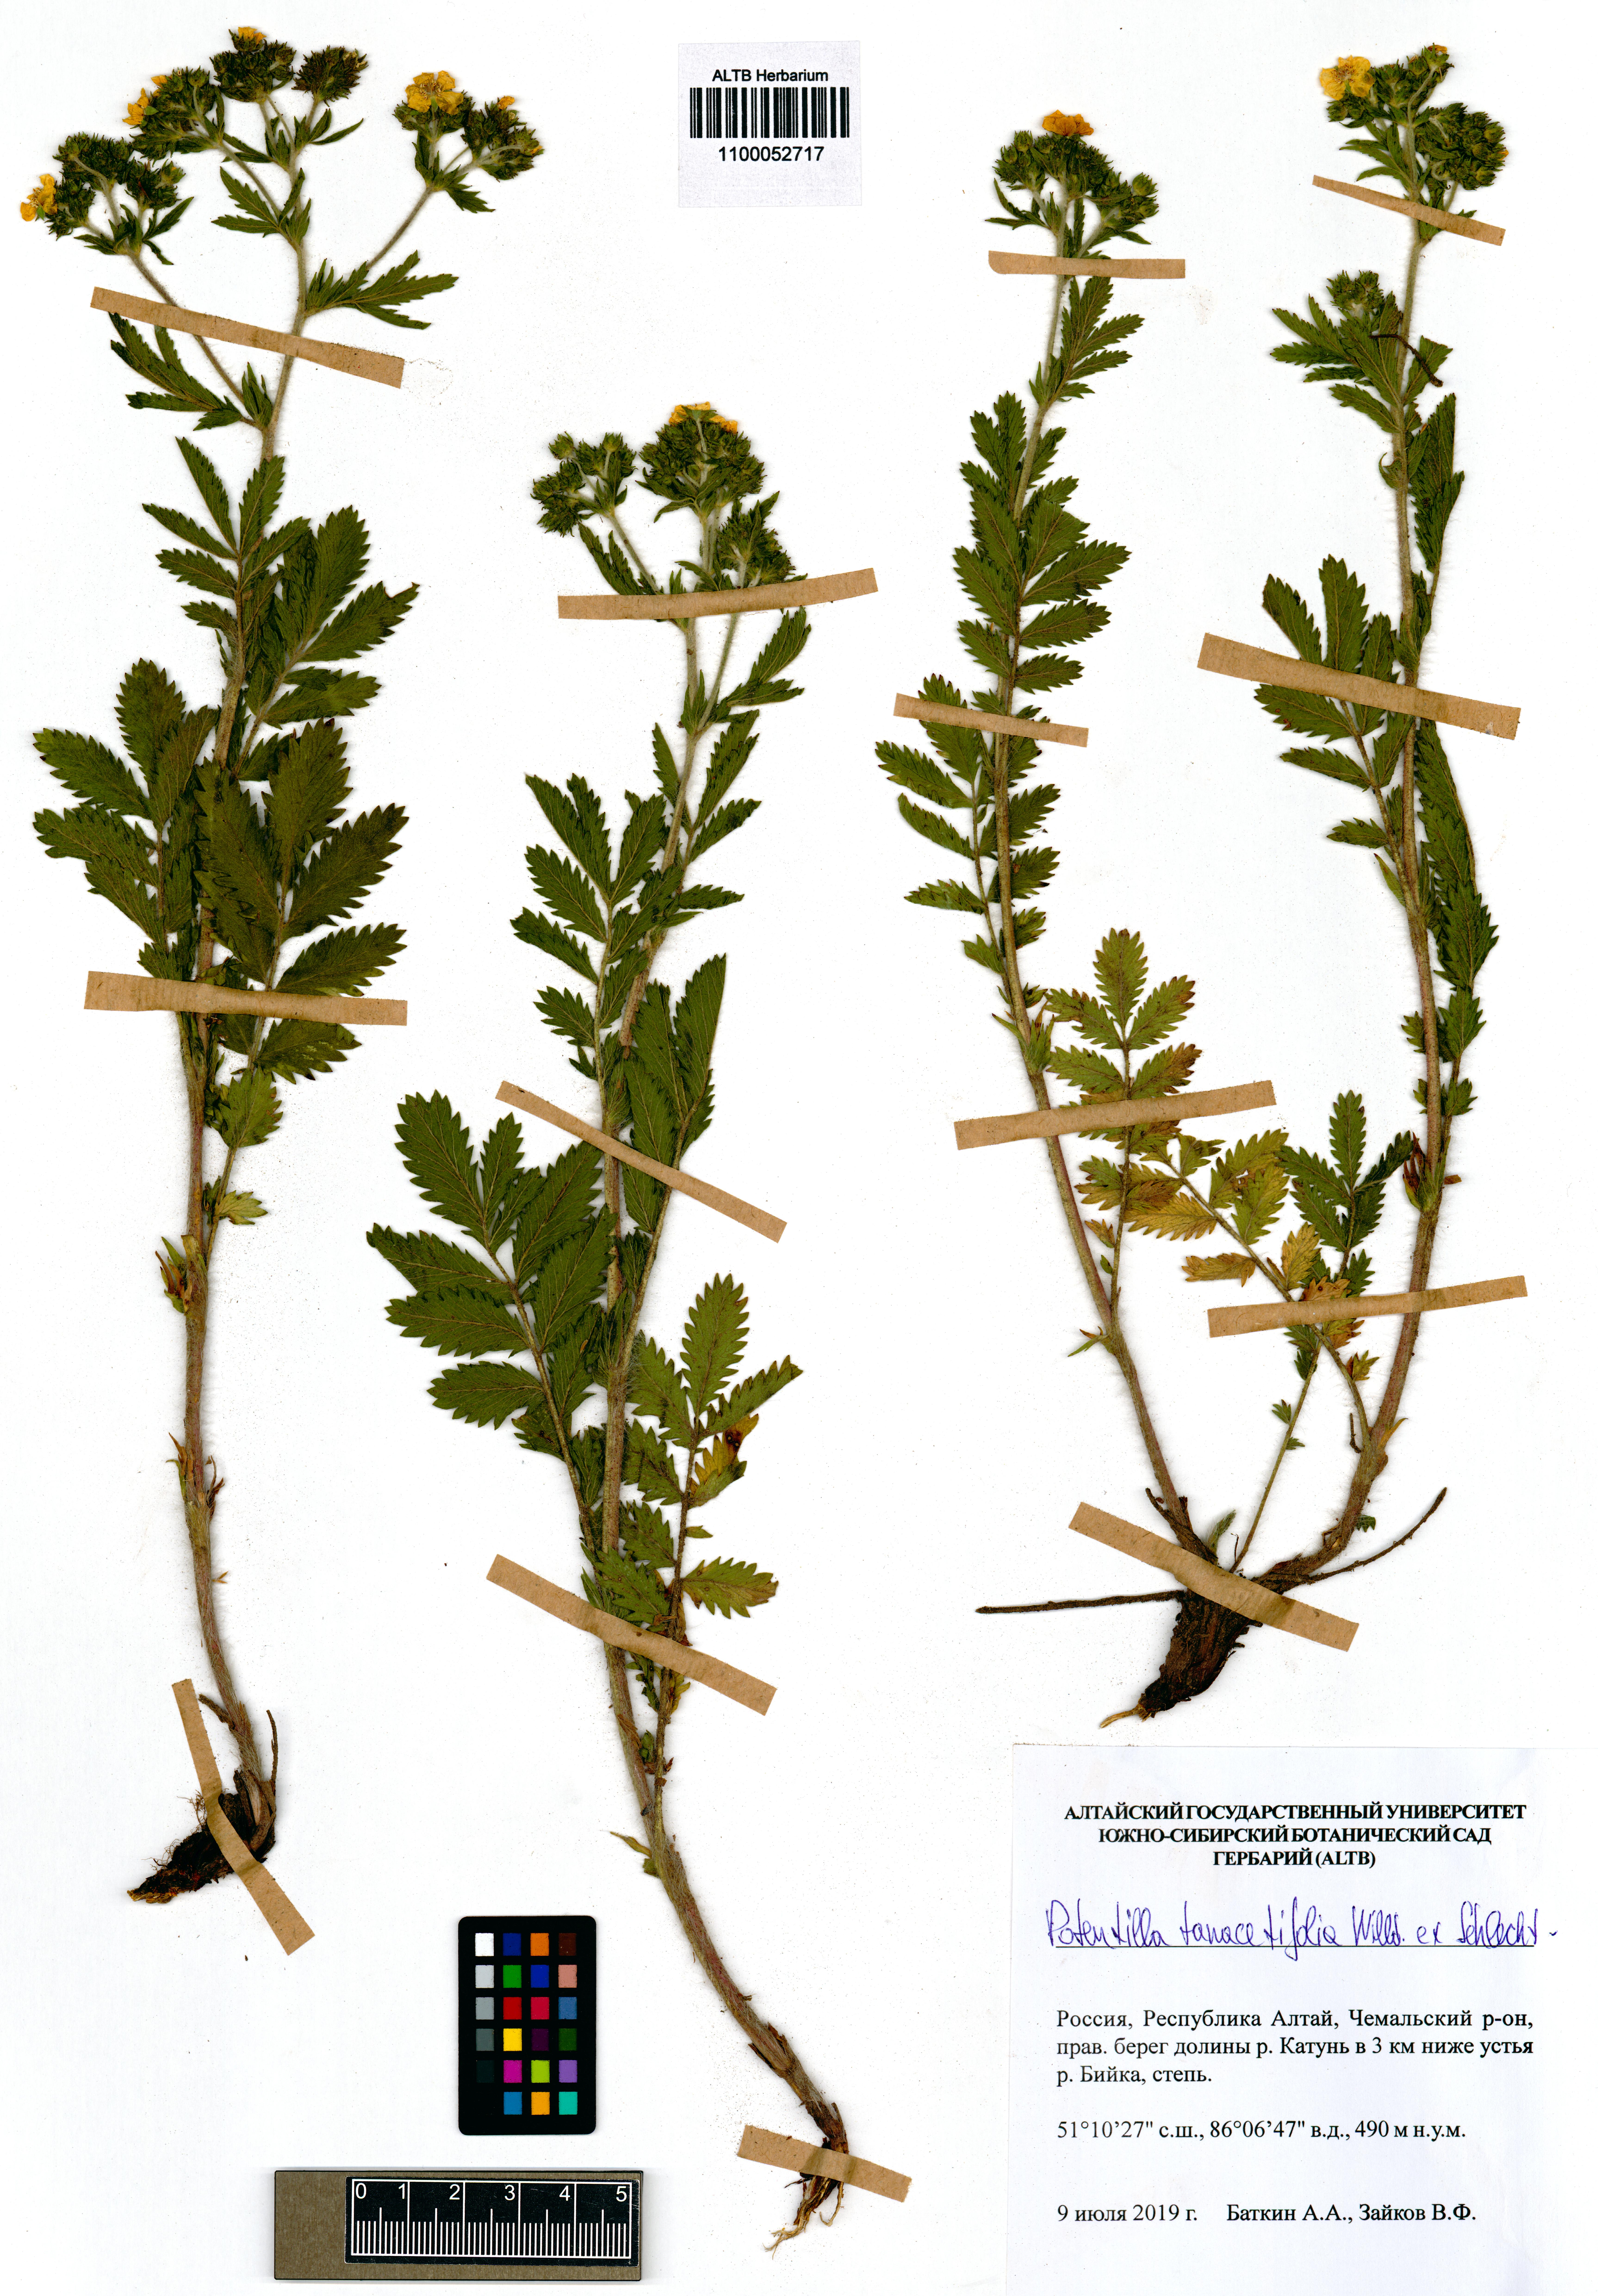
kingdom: Plantae
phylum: Tracheophyta
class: Magnoliopsida
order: Rosales
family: Rosaceae
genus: Potentilla
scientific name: Potentilla tanacetifolia
